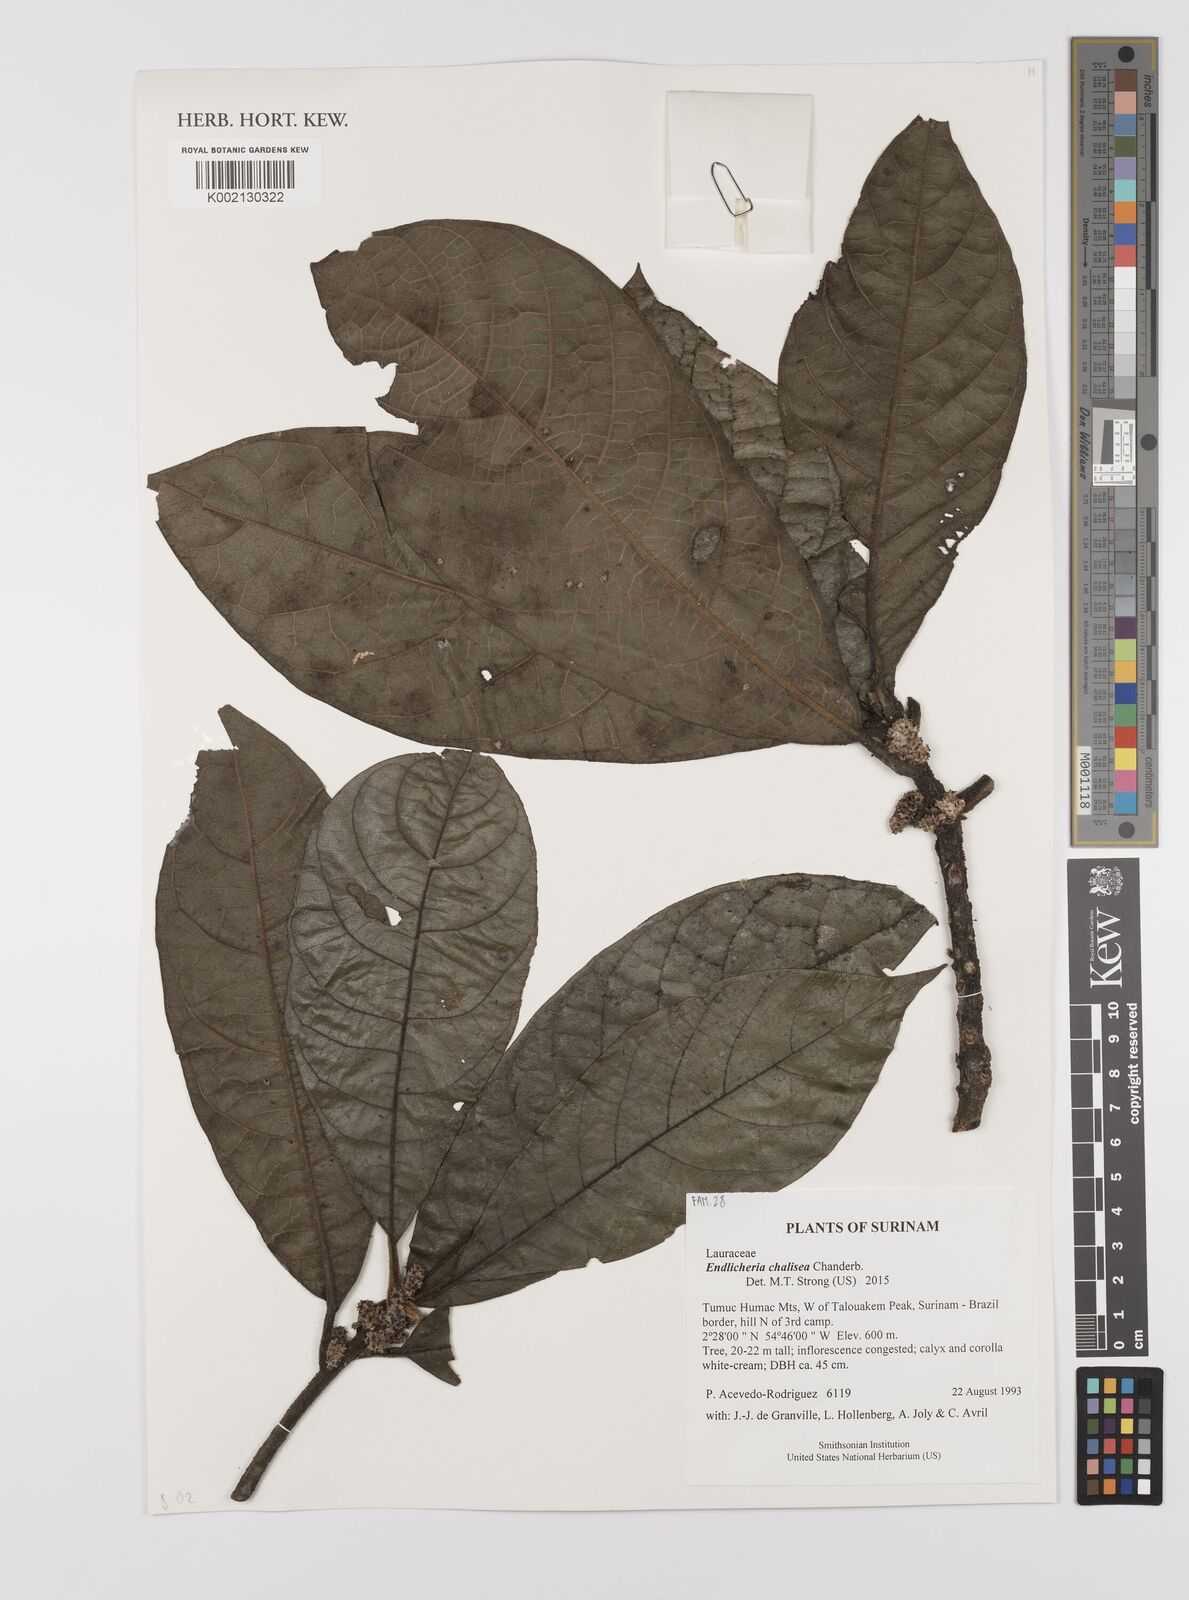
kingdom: Plantae
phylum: Tracheophyta
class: Magnoliopsida
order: Laurales
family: Lauraceae
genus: Endlicheria
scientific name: Endlicheria chalisea
